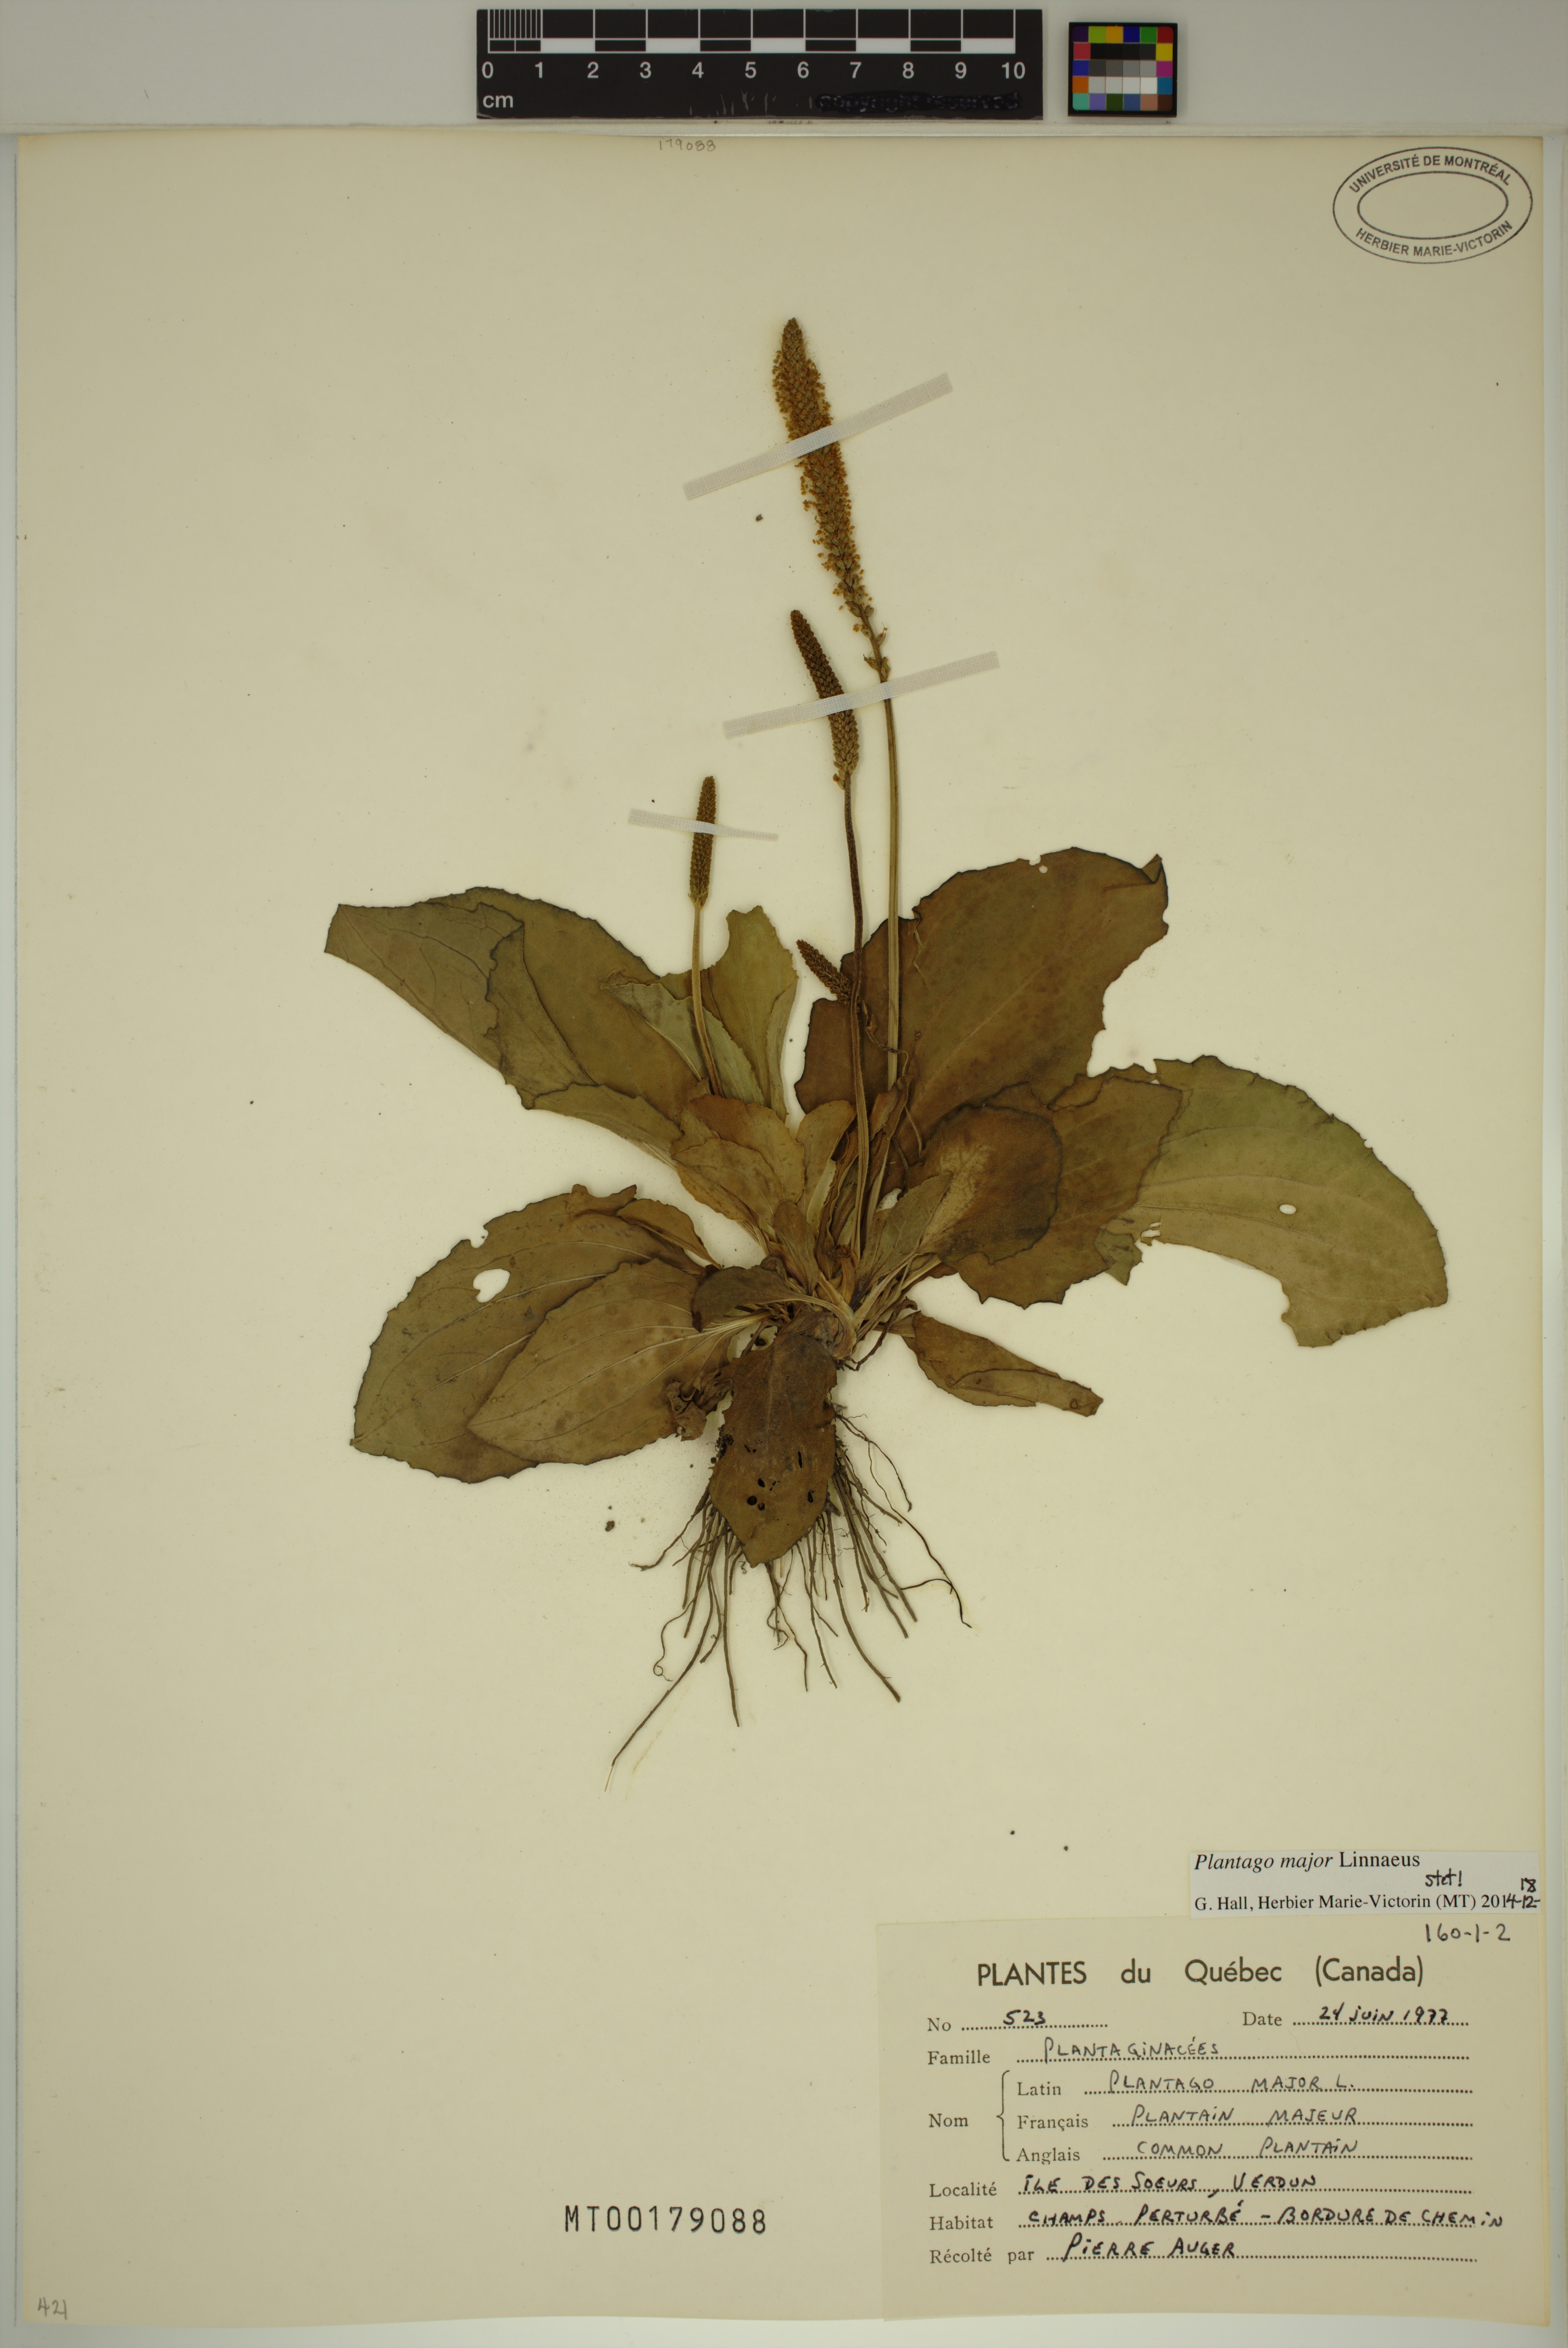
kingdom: Plantae
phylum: Tracheophyta
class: Magnoliopsida
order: Lamiales
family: Plantaginaceae
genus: Plantago
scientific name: Plantago major
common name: Common plantain
